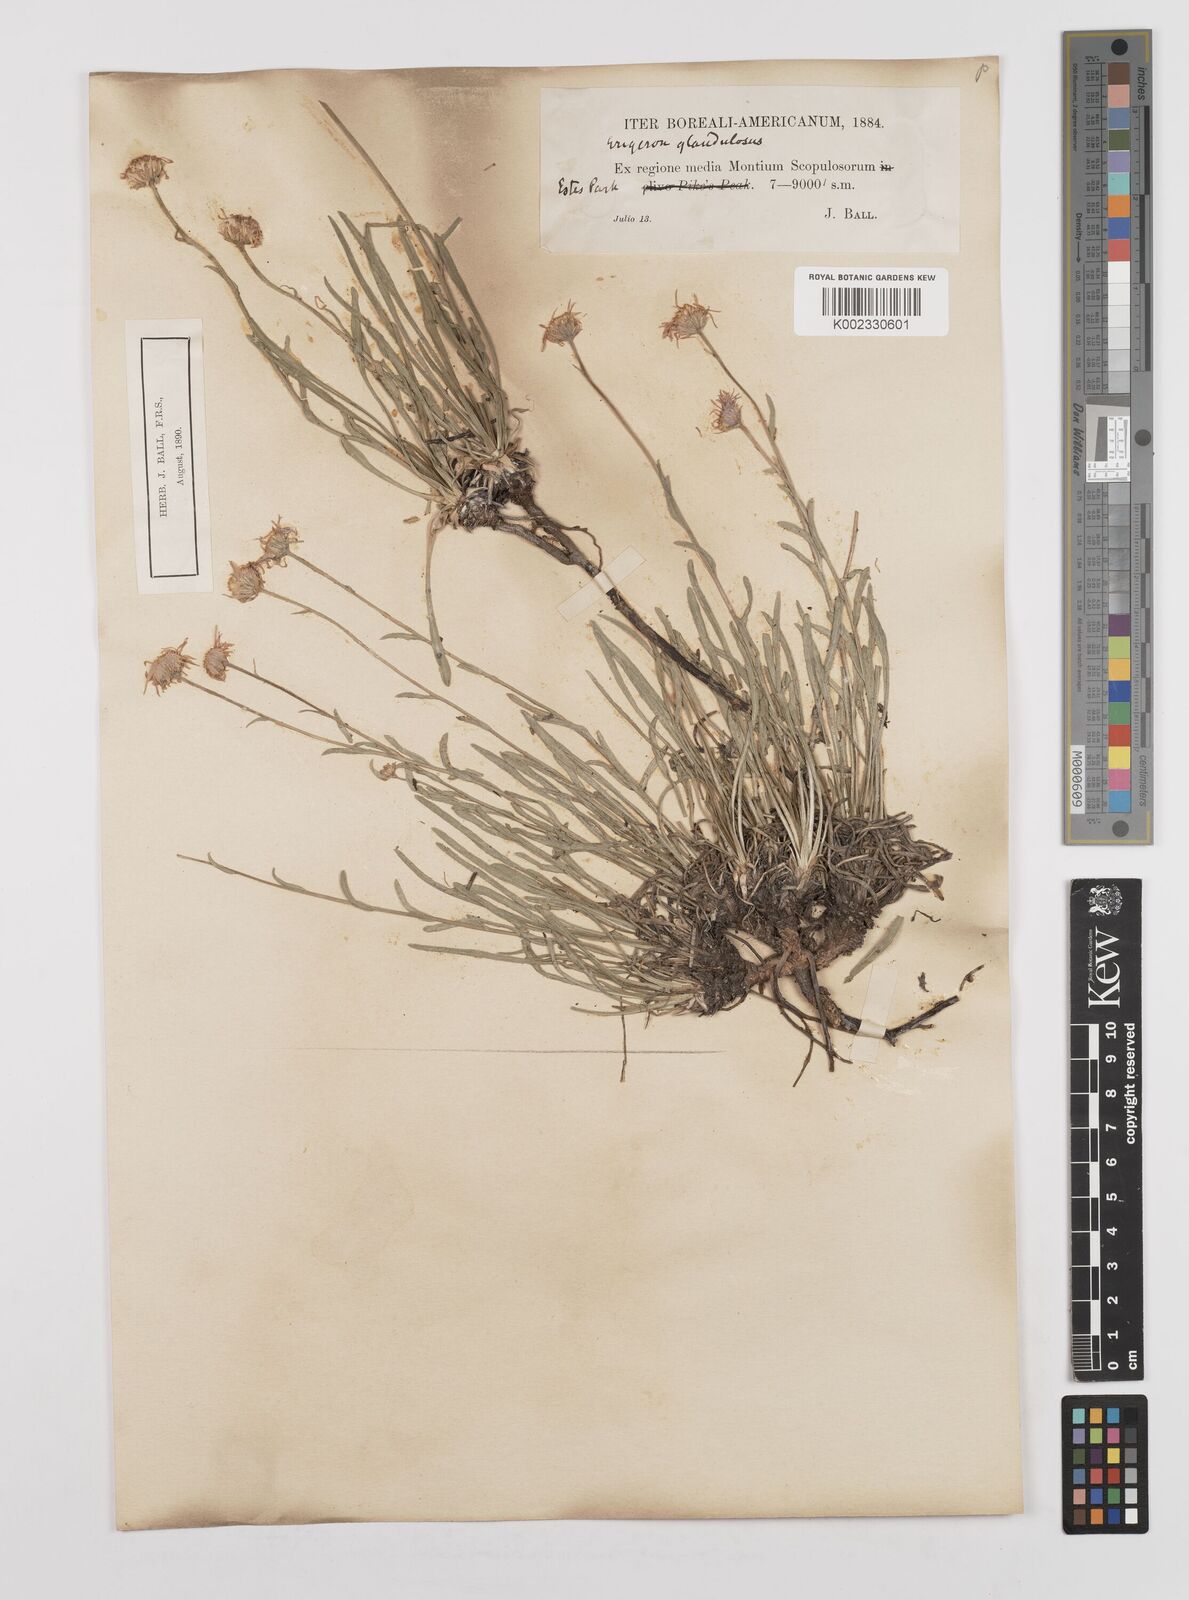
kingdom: Plantae
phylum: Tracheophyta
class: Magnoliopsida
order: Asterales
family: Asteraceae
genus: Erigeron
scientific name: Erigeron vetensis
